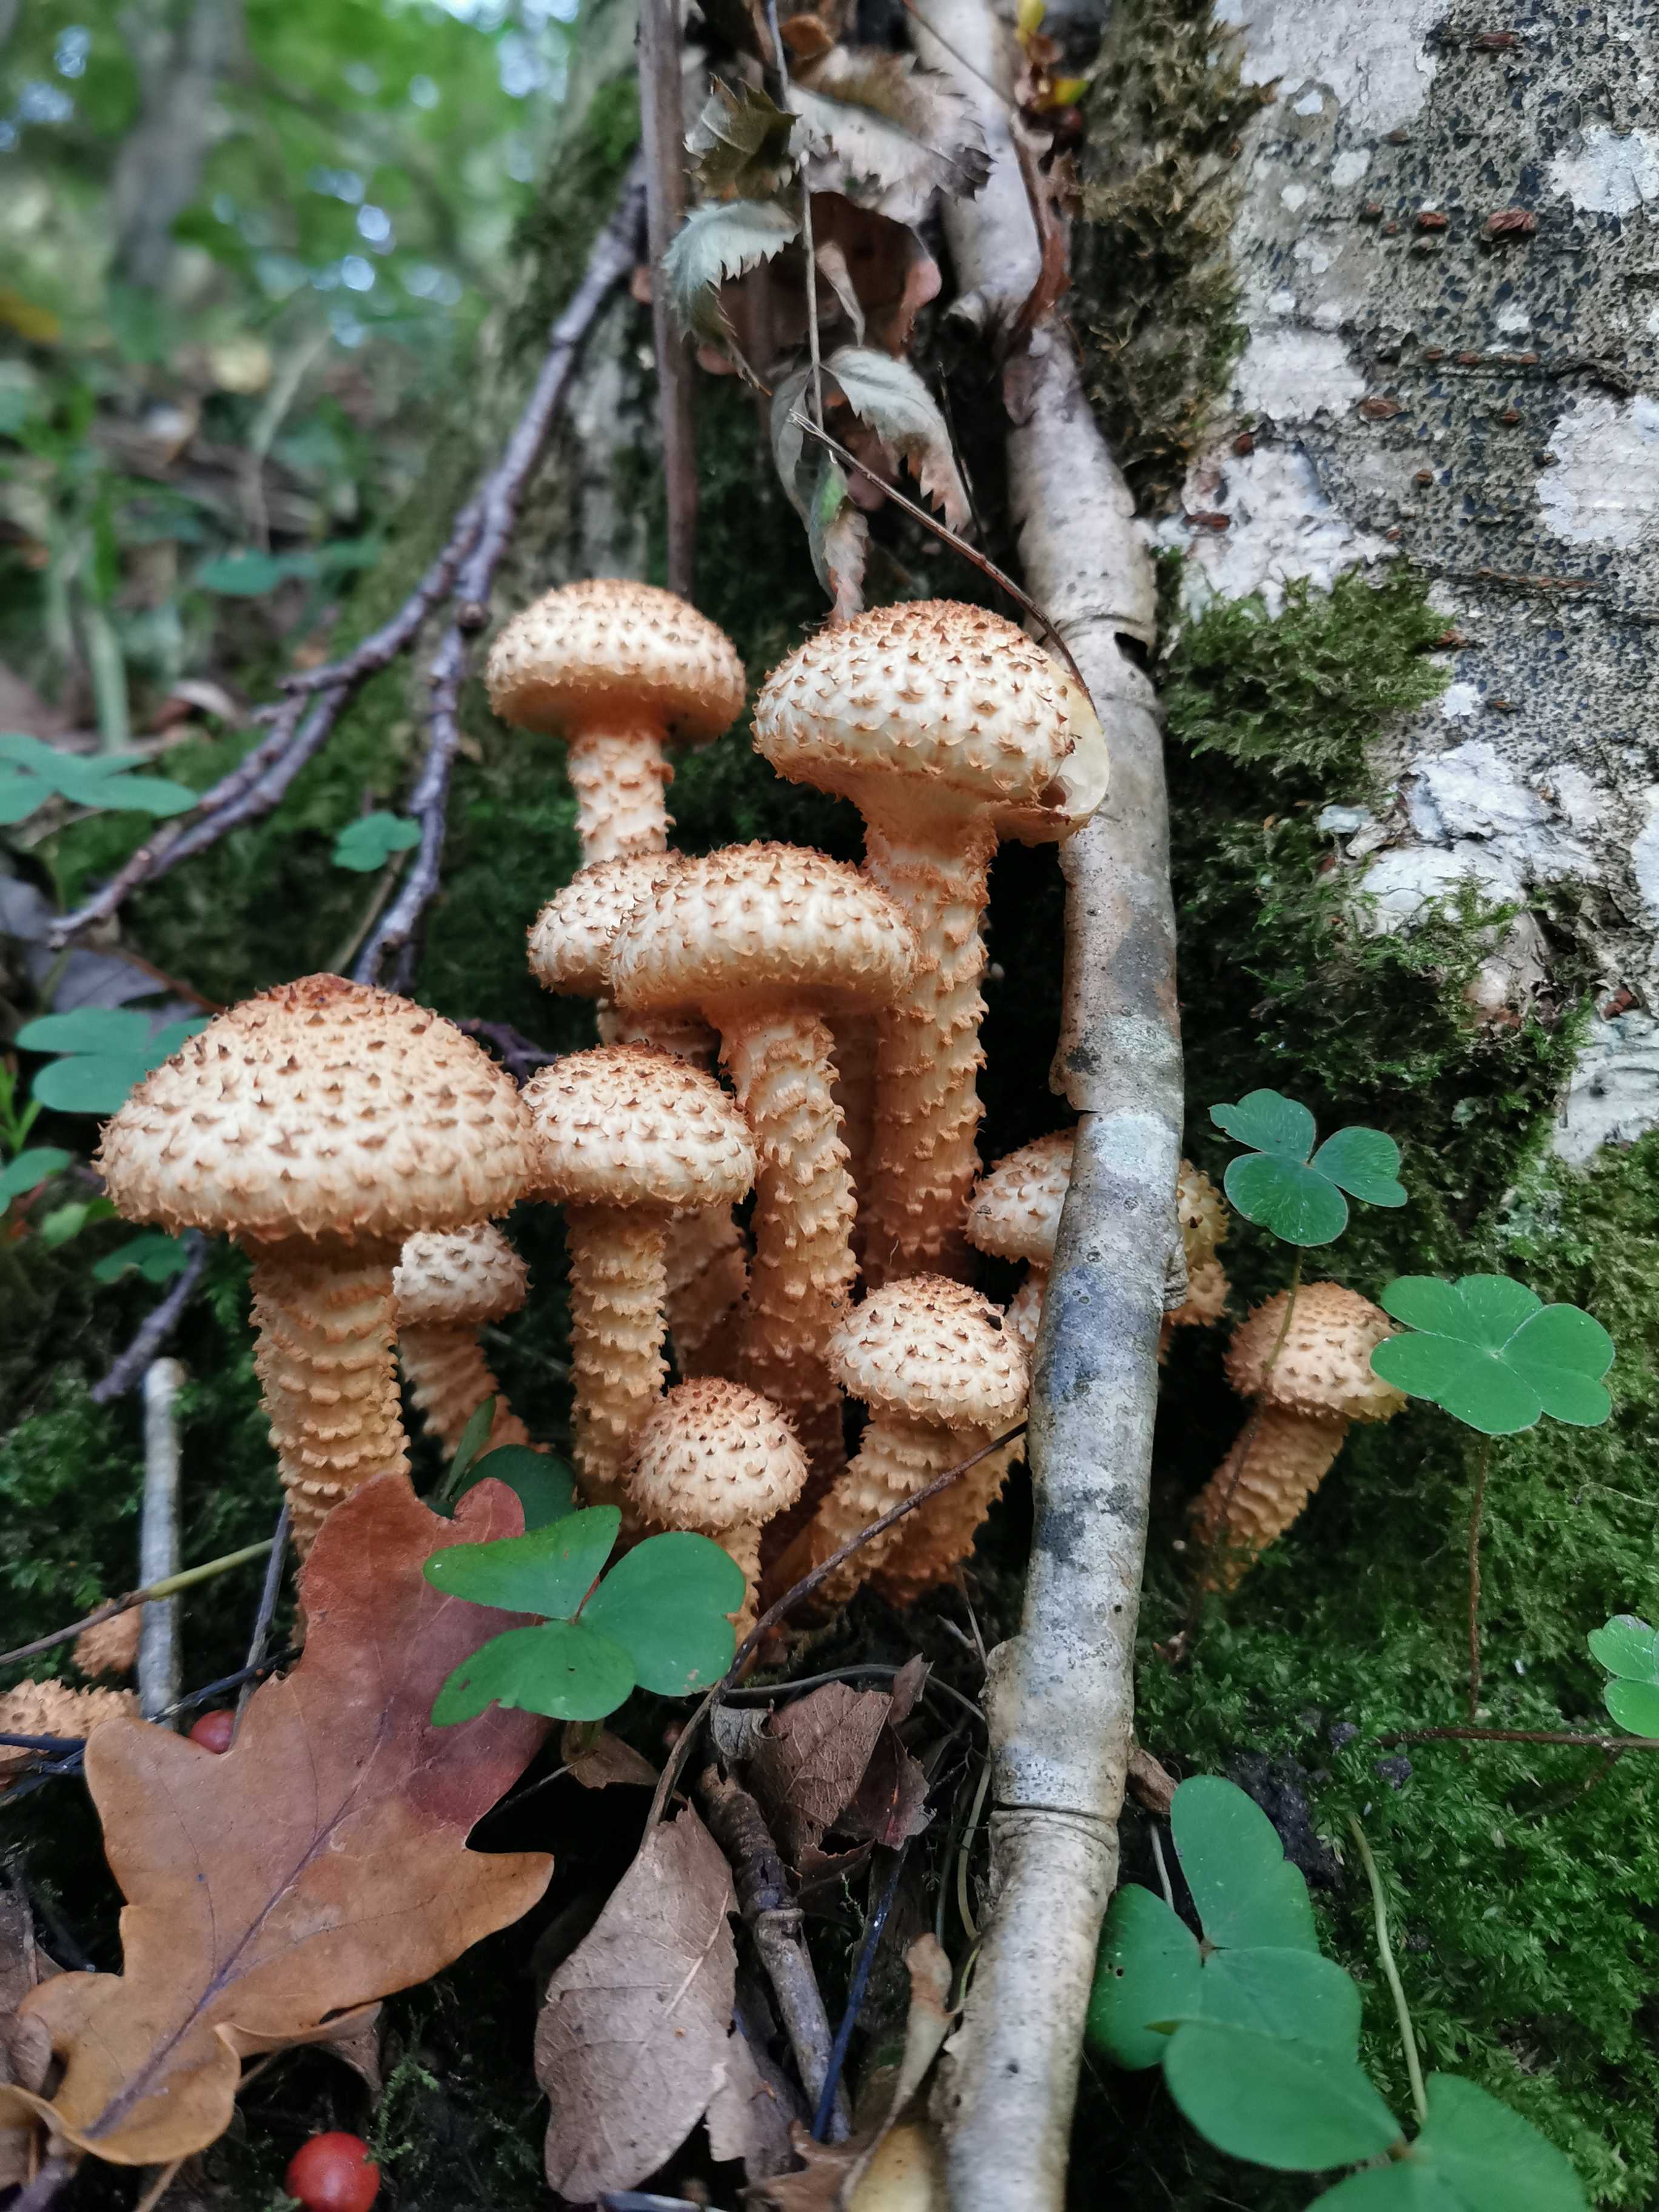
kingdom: Fungi
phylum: Basidiomycota
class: Agaricomycetes
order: Agaricales
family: Strophariaceae
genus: Pholiota
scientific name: Pholiota squarrosa
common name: krumskællet skælhat
